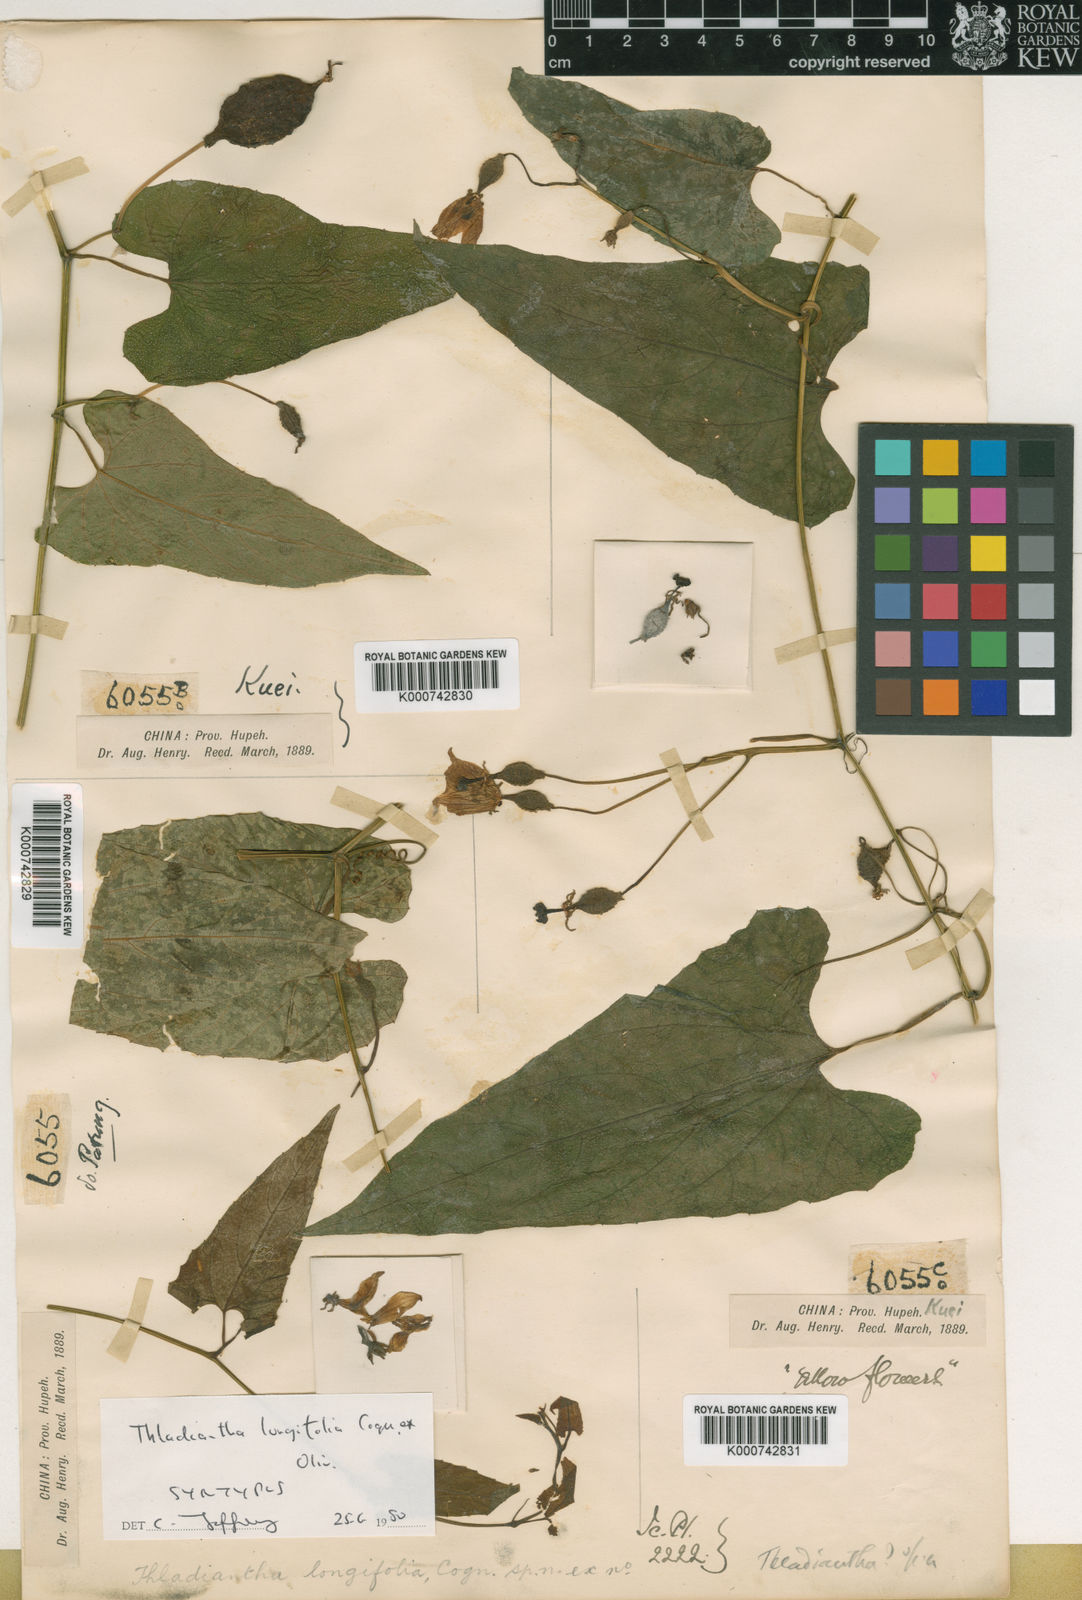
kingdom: Plantae
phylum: Tracheophyta
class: Magnoliopsida
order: Cucurbitales
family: Cucurbitaceae
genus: Thladiantha
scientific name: Thladiantha longifolia
